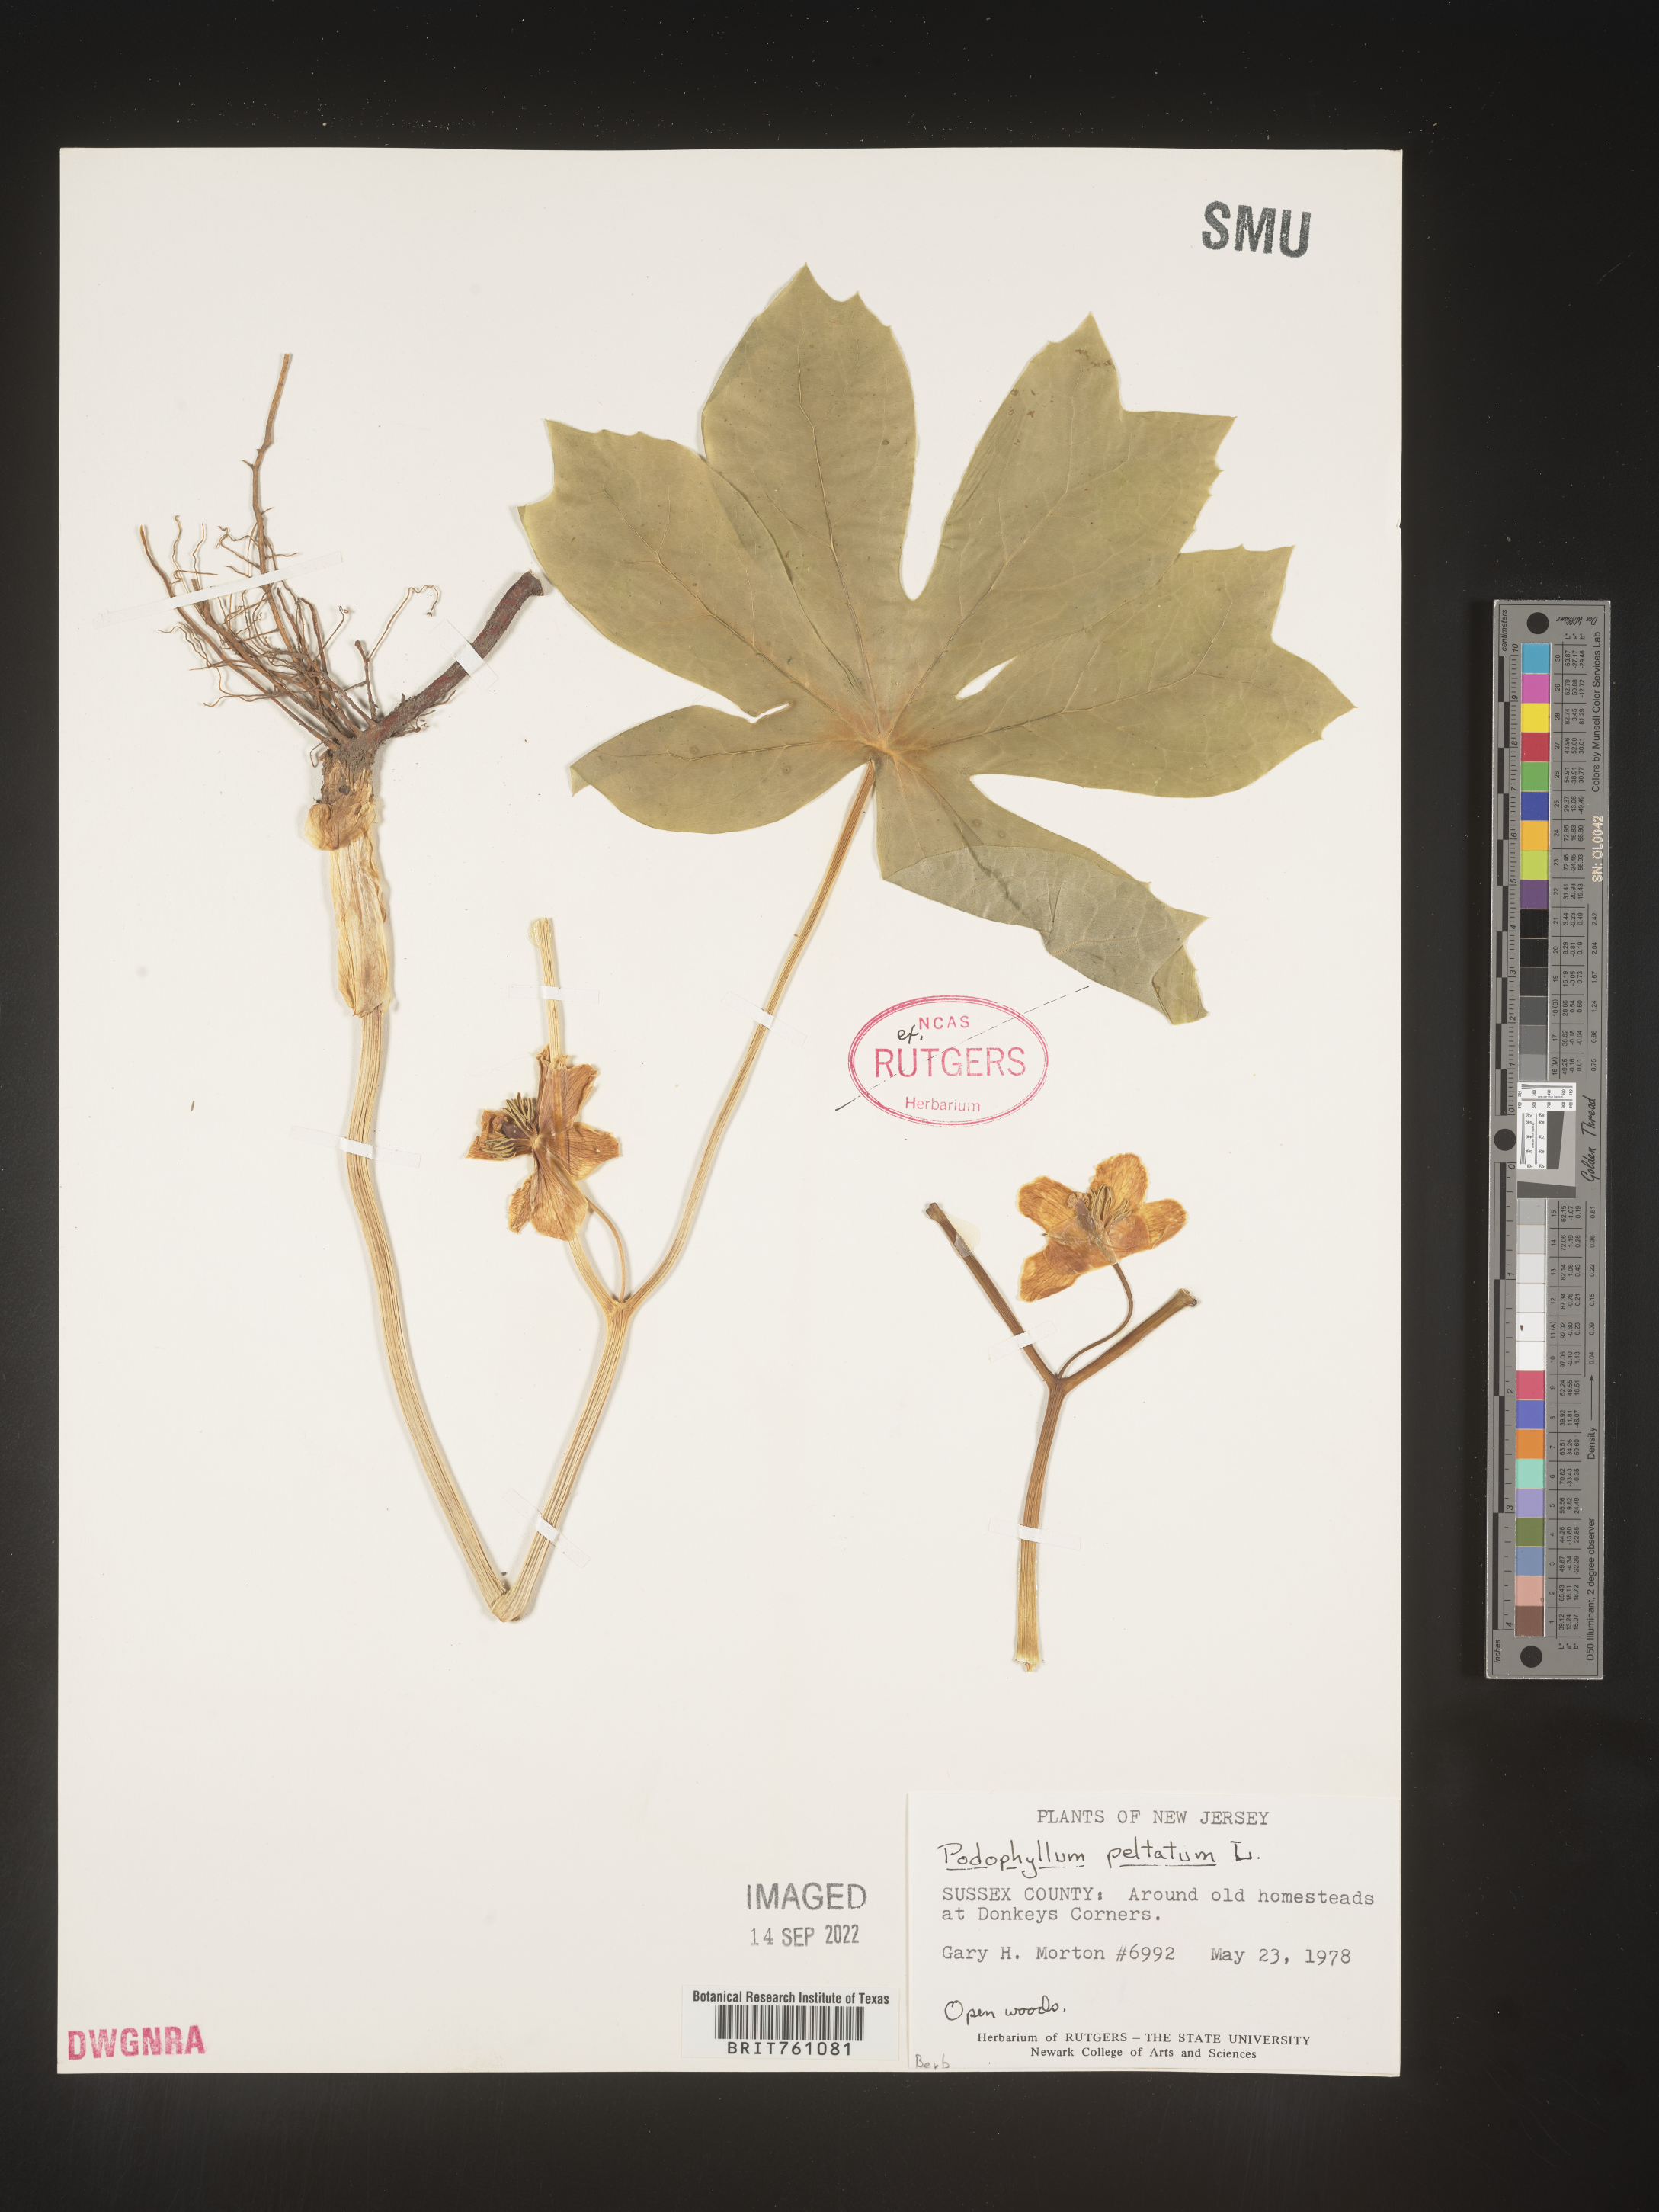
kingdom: Plantae
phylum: Tracheophyta
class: Magnoliopsida
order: Ranunculales
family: Berberidaceae
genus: Podophyllum
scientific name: Podophyllum peltatum
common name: Wild mandrake
